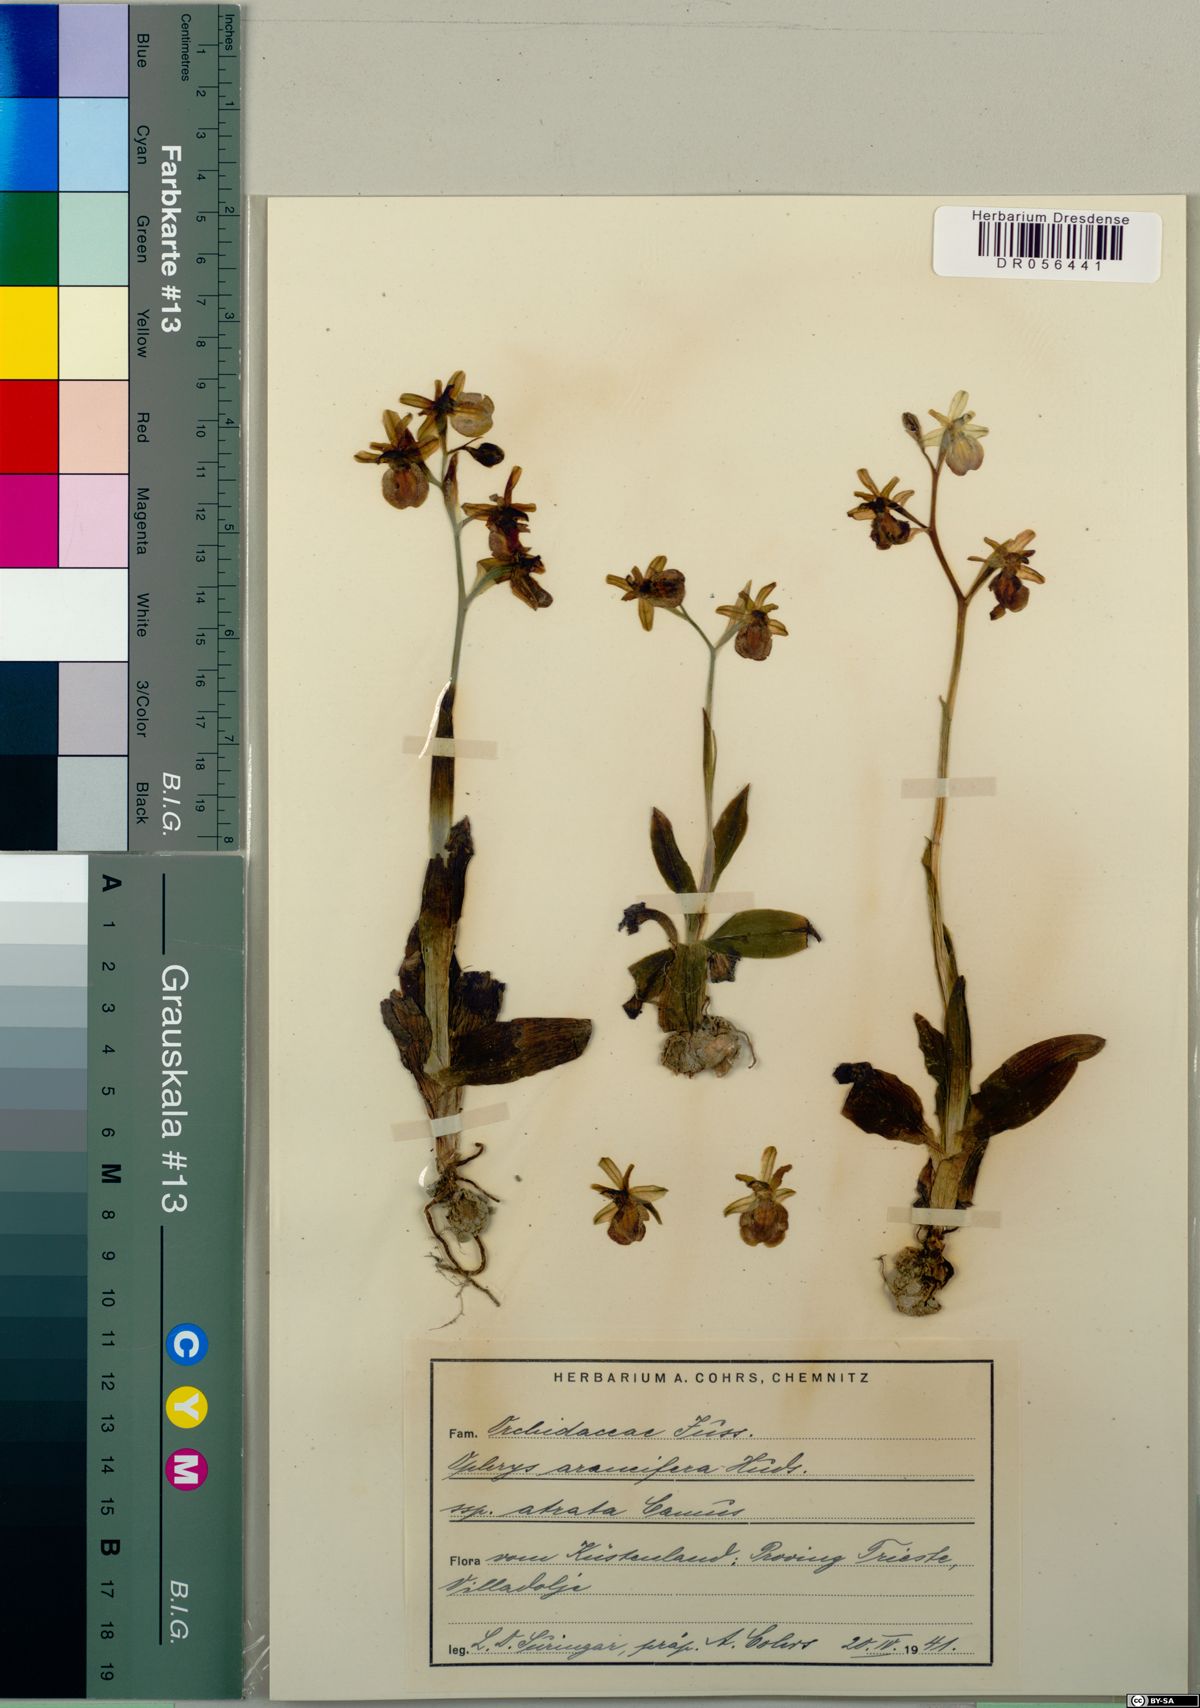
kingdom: Plantae
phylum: Tracheophyta
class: Liliopsida
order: Asparagales
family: Orchidaceae
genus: Ophrys
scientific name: Ophrys sphegodes
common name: Early spider-orchid
